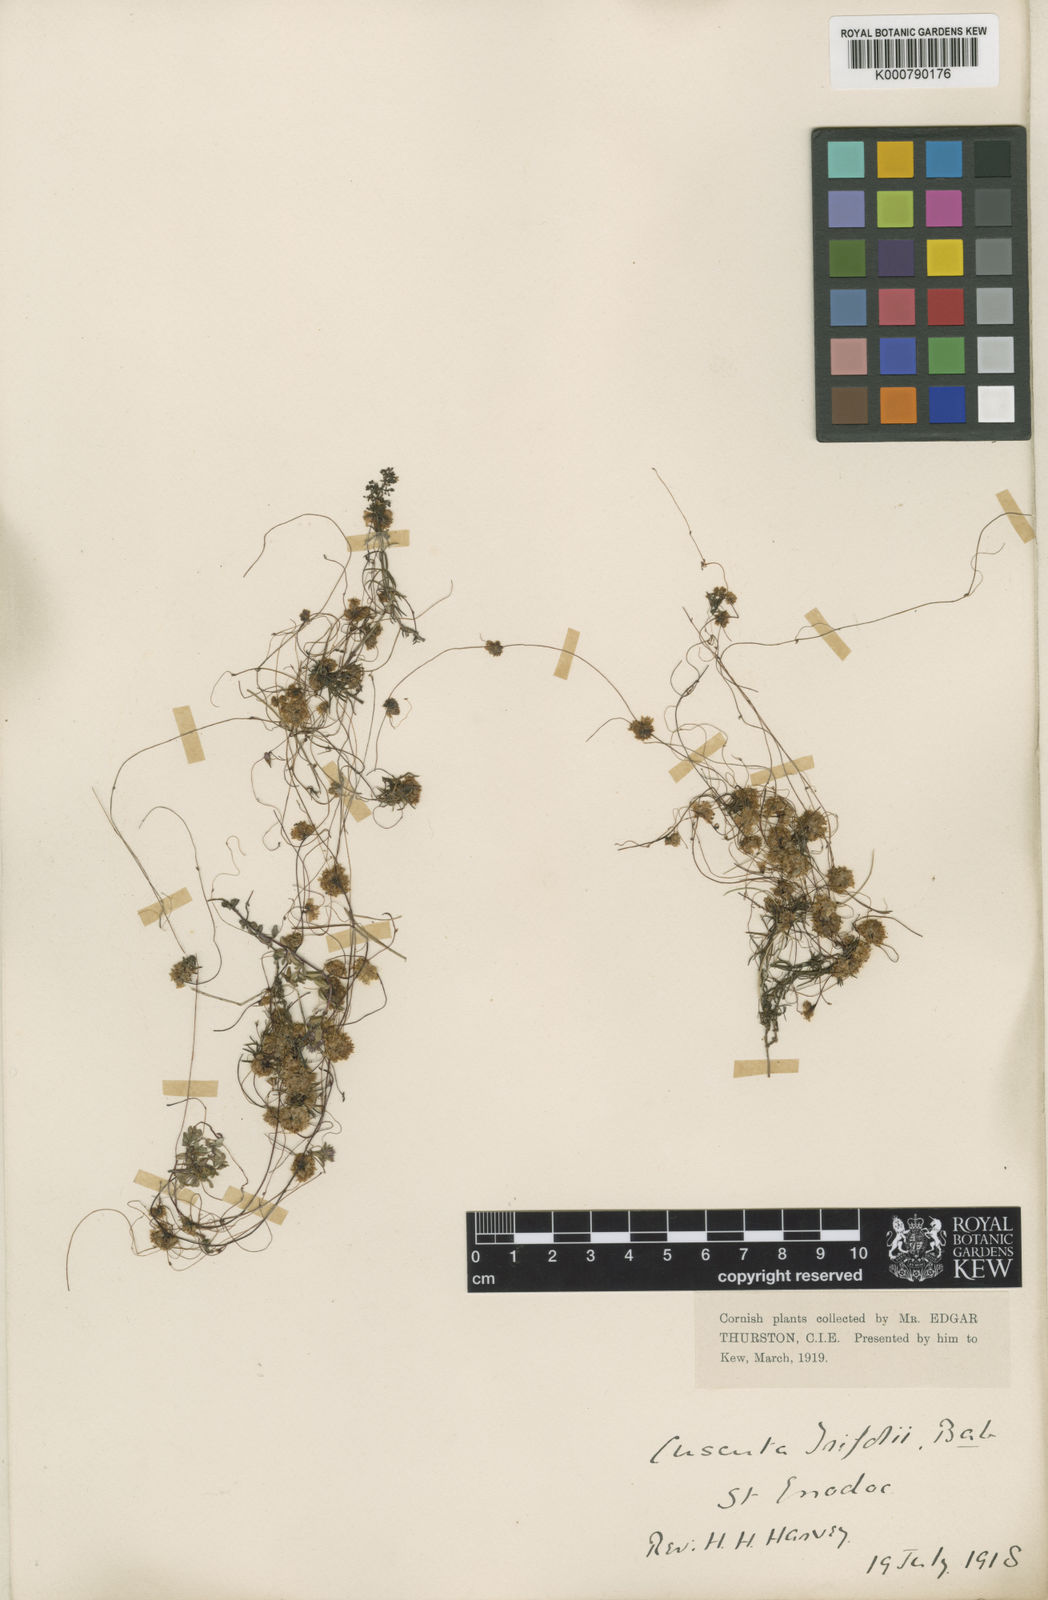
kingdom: Plantae
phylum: Tracheophyta
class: Magnoliopsida
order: Solanales
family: Convolvulaceae
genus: Cuscuta
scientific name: Cuscuta epithymum
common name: Clover dodder
